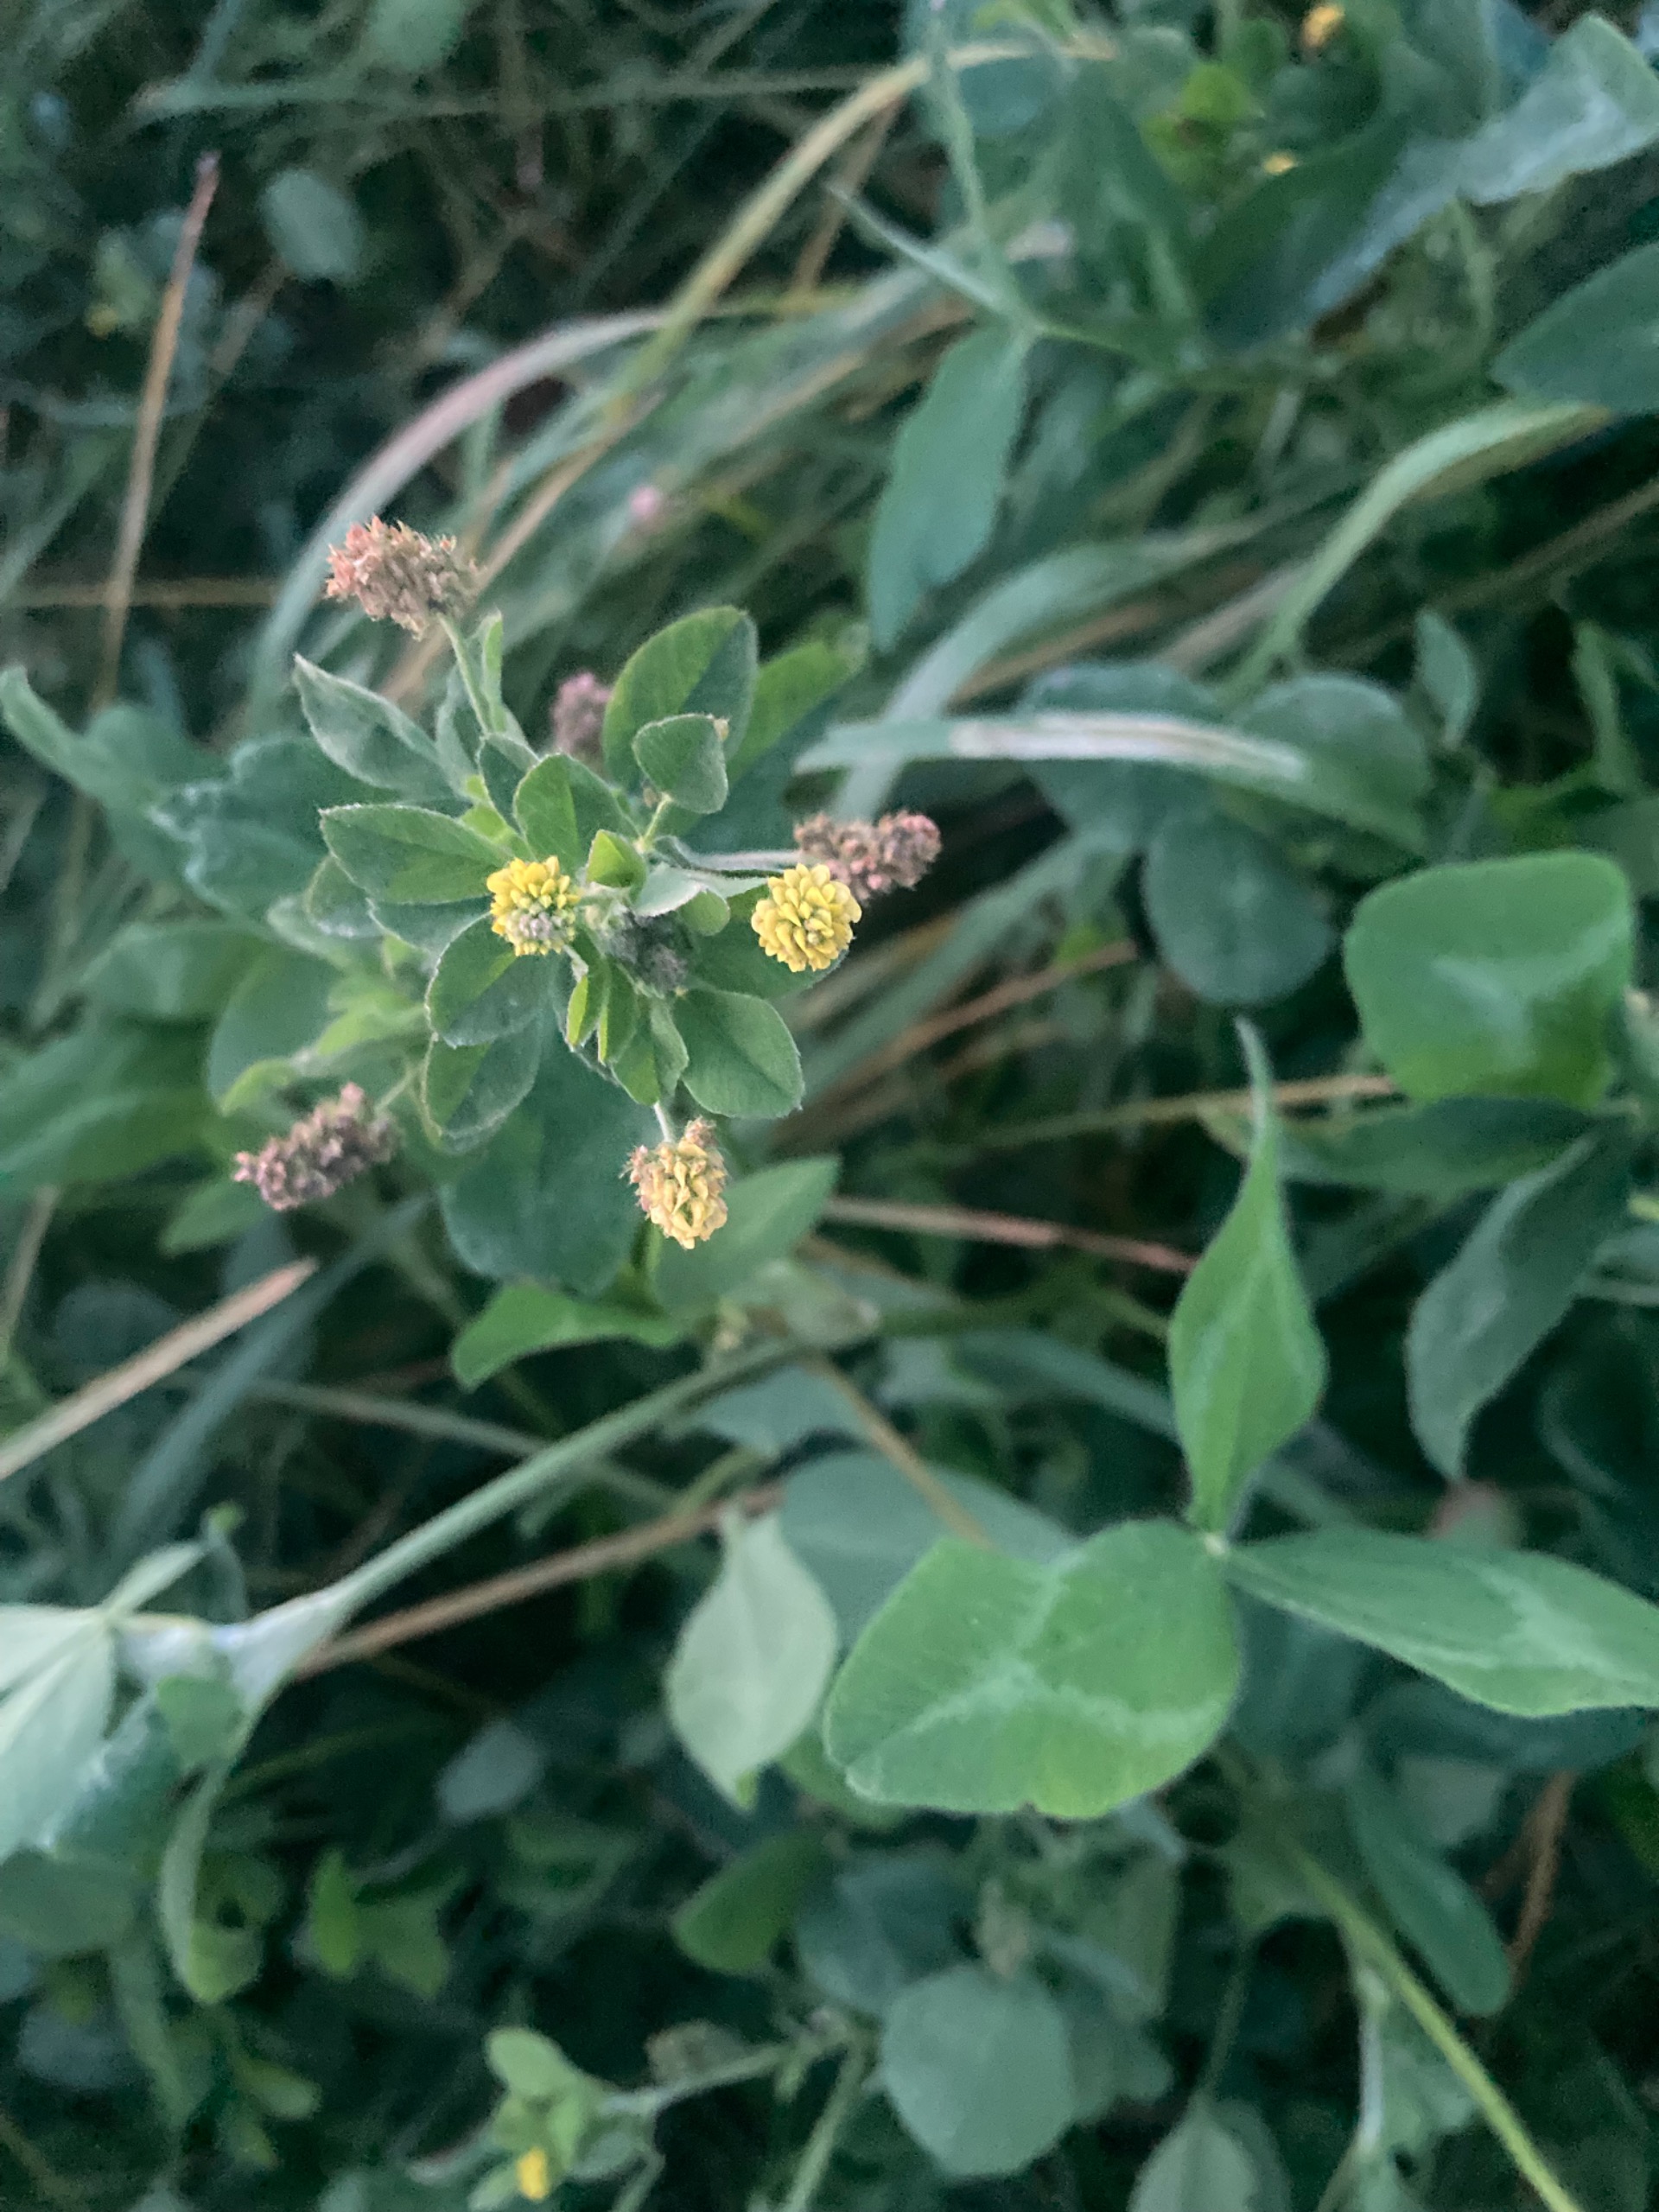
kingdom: Plantae
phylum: Tracheophyta
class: Magnoliopsida
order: Fabales
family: Fabaceae
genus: Medicago
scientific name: Medicago lupulina
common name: Humle-sneglebælg
